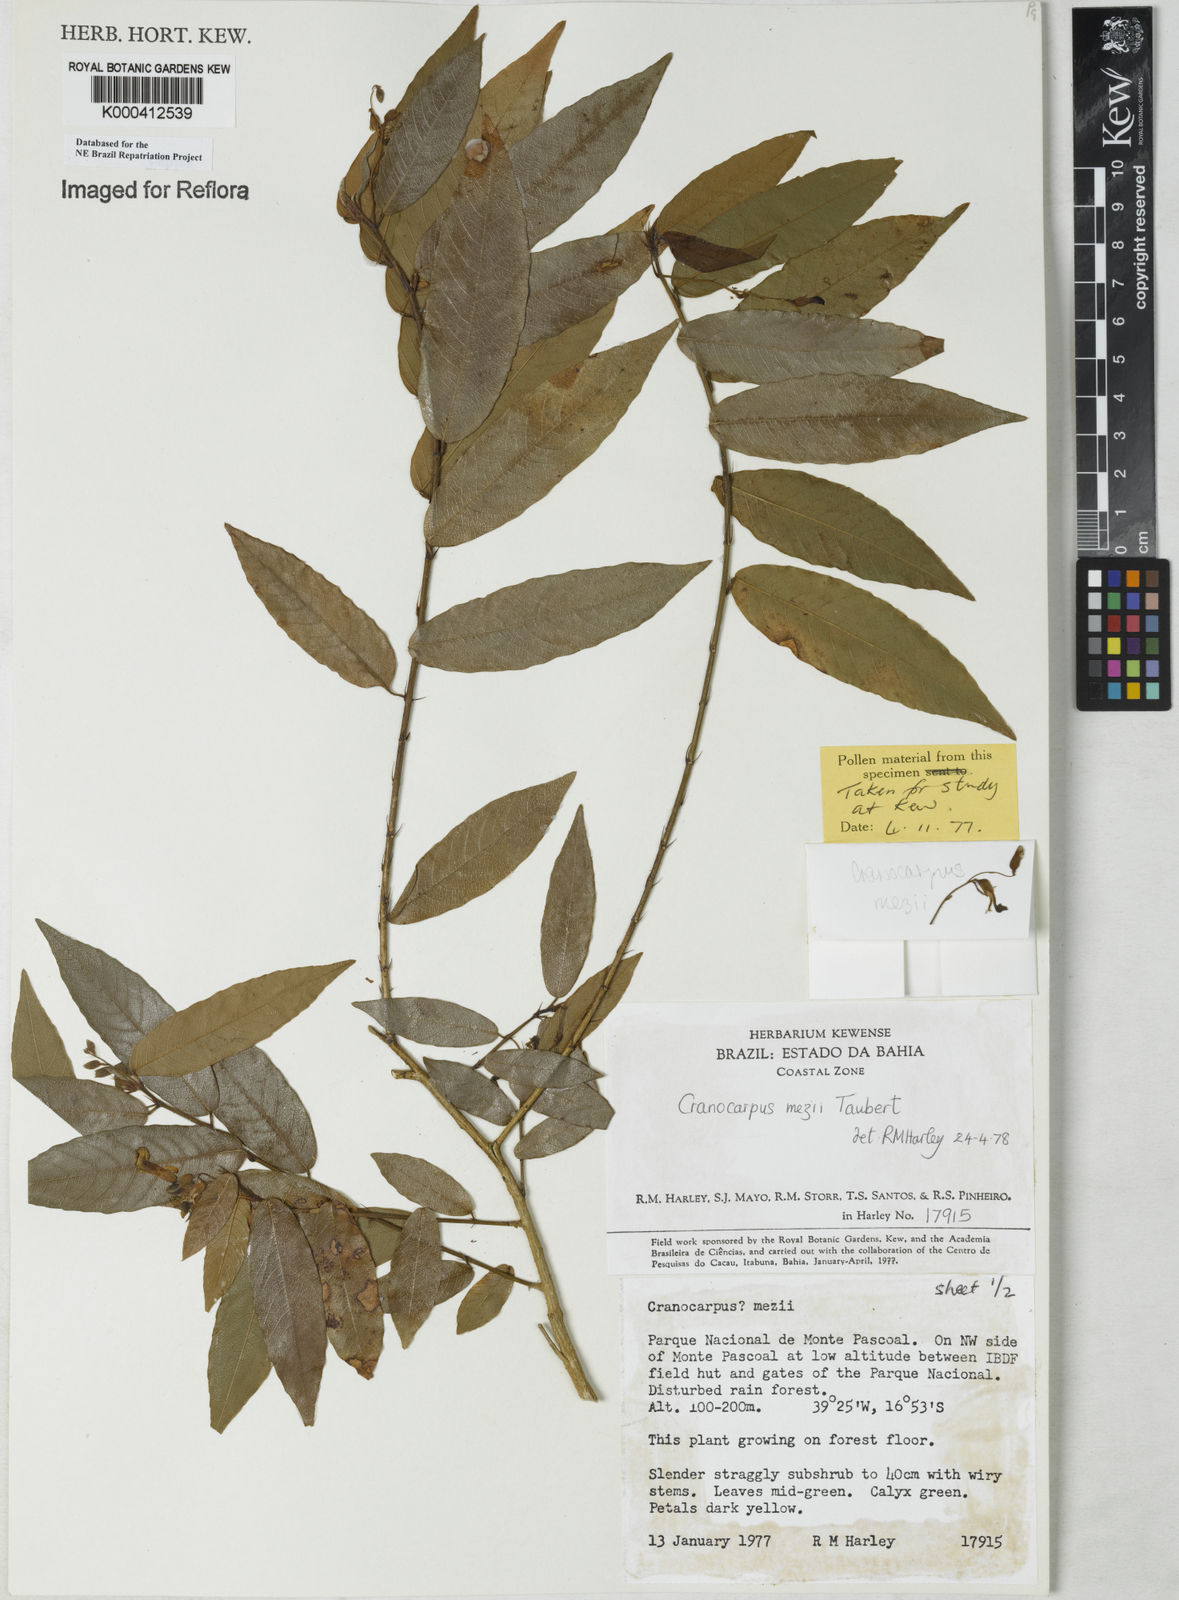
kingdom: Plantae
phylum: Tracheophyta
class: Magnoliopsida
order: Fabales
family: Fabaceae
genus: Cranocarpus
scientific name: Cranocarpus mezii
